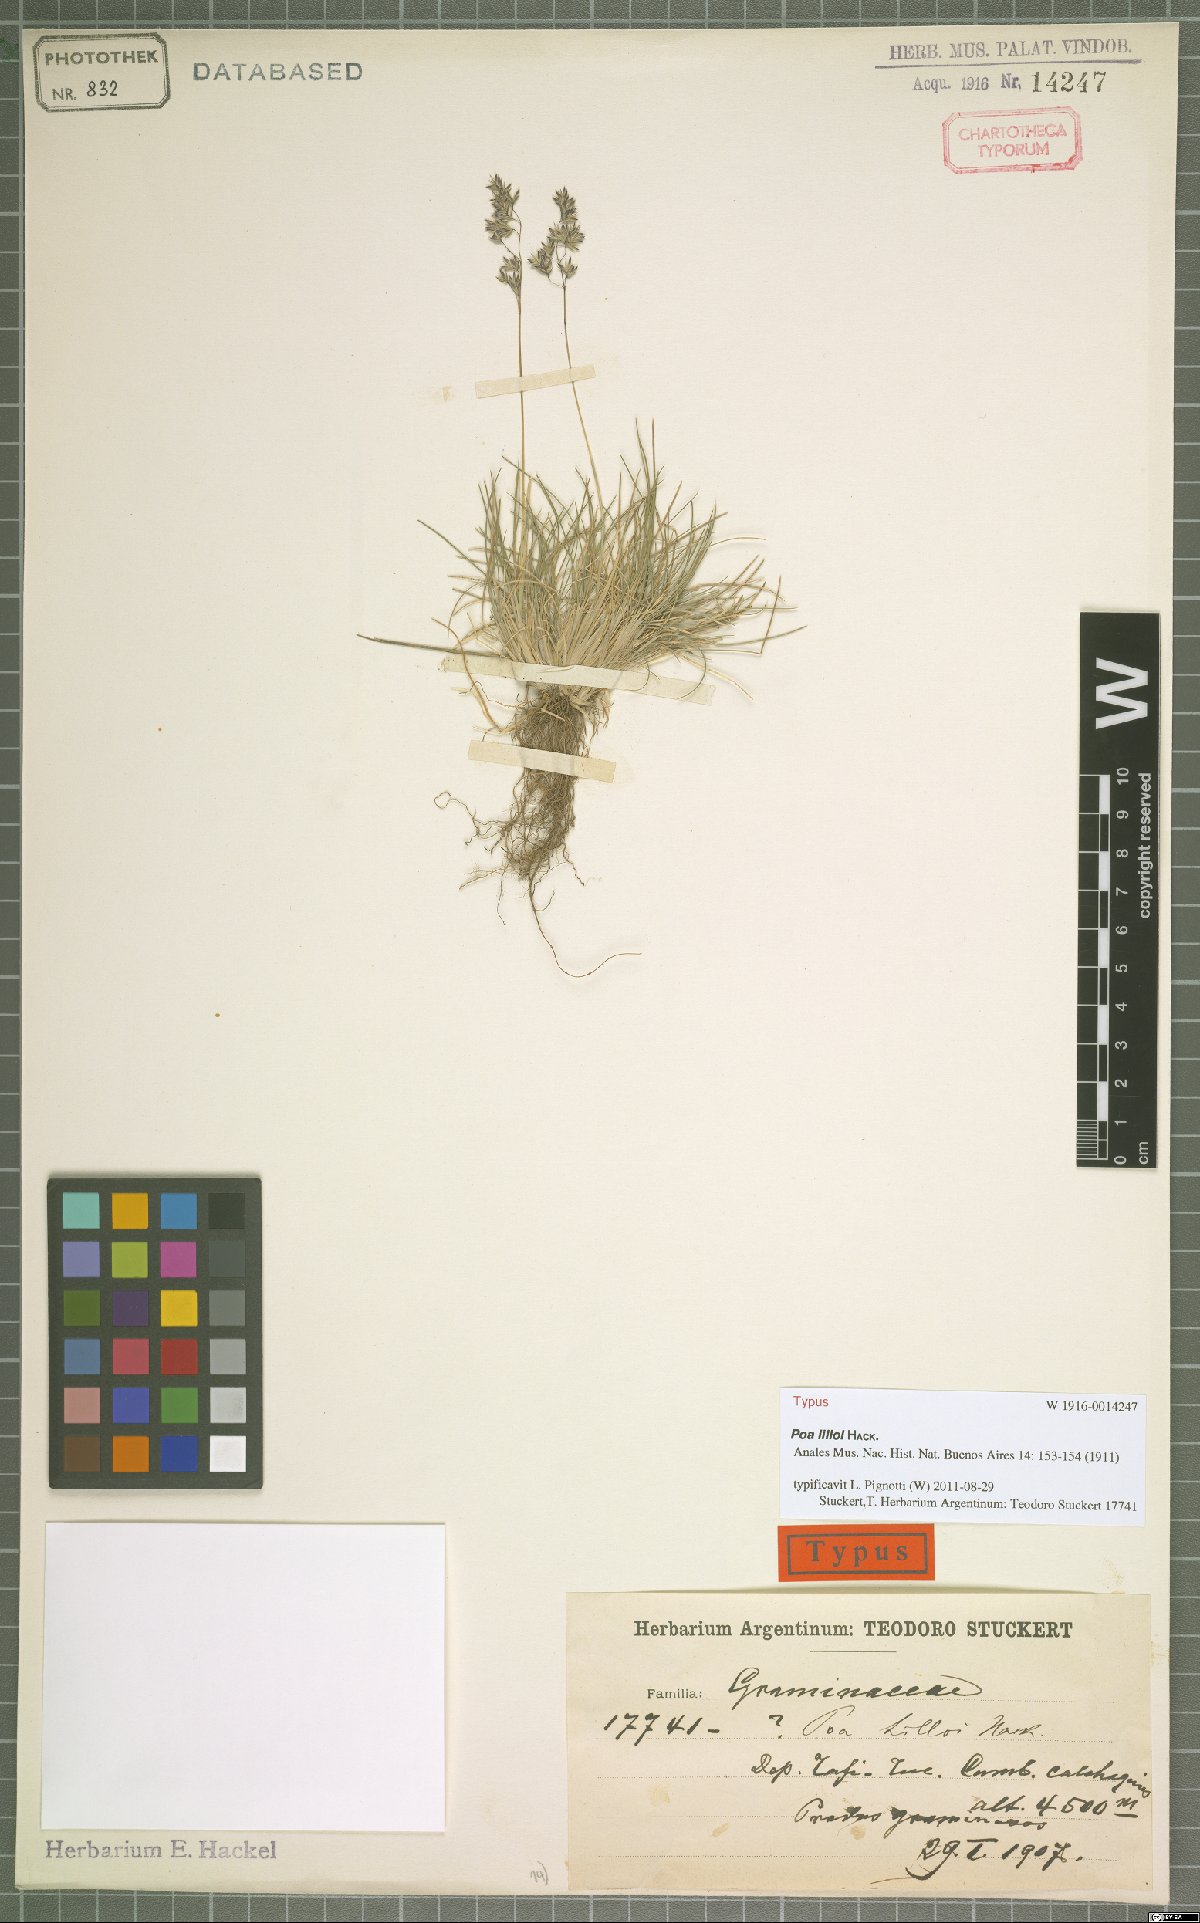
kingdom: Plantae
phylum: Tracheophyta
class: Liliopsida
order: Poales
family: Poaceae
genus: Poa
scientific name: Poa lilloi
